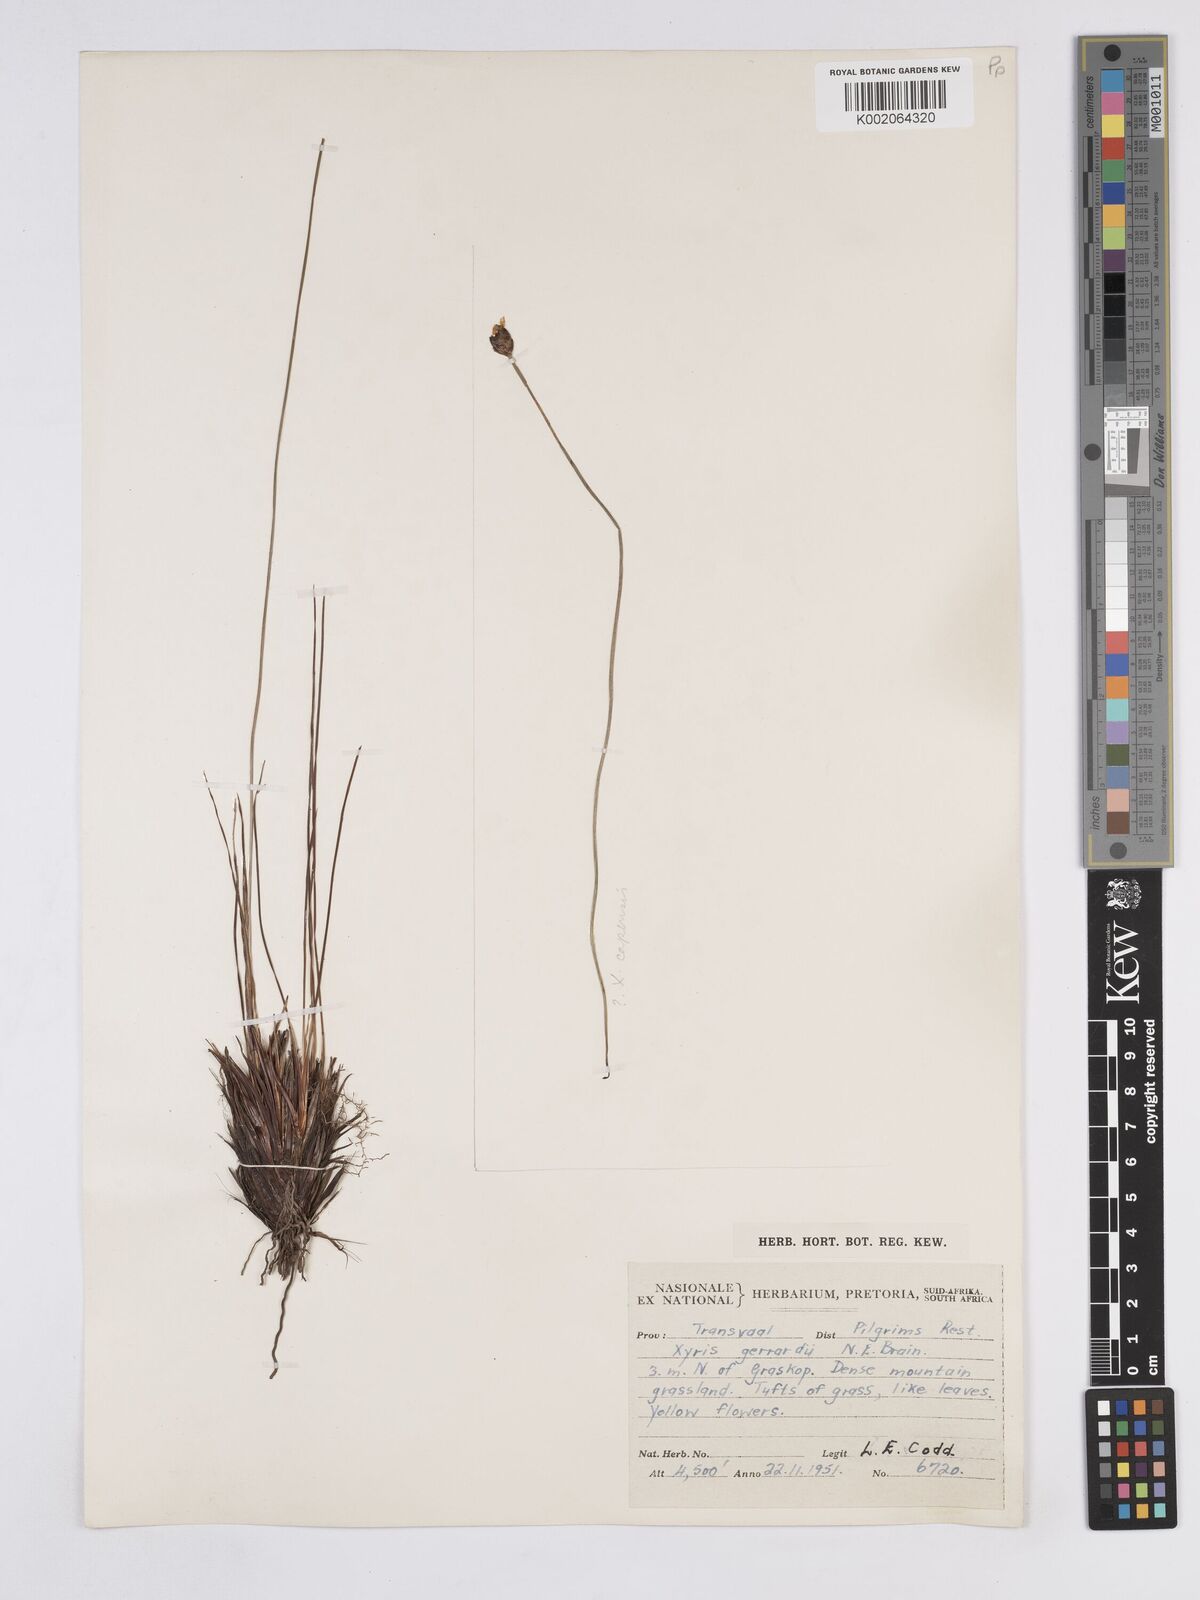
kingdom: Plantae
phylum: Tracheophyta
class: Liliopsida
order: Poales
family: Xyridaceae
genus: Xyris
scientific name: Xyris gerrardii
